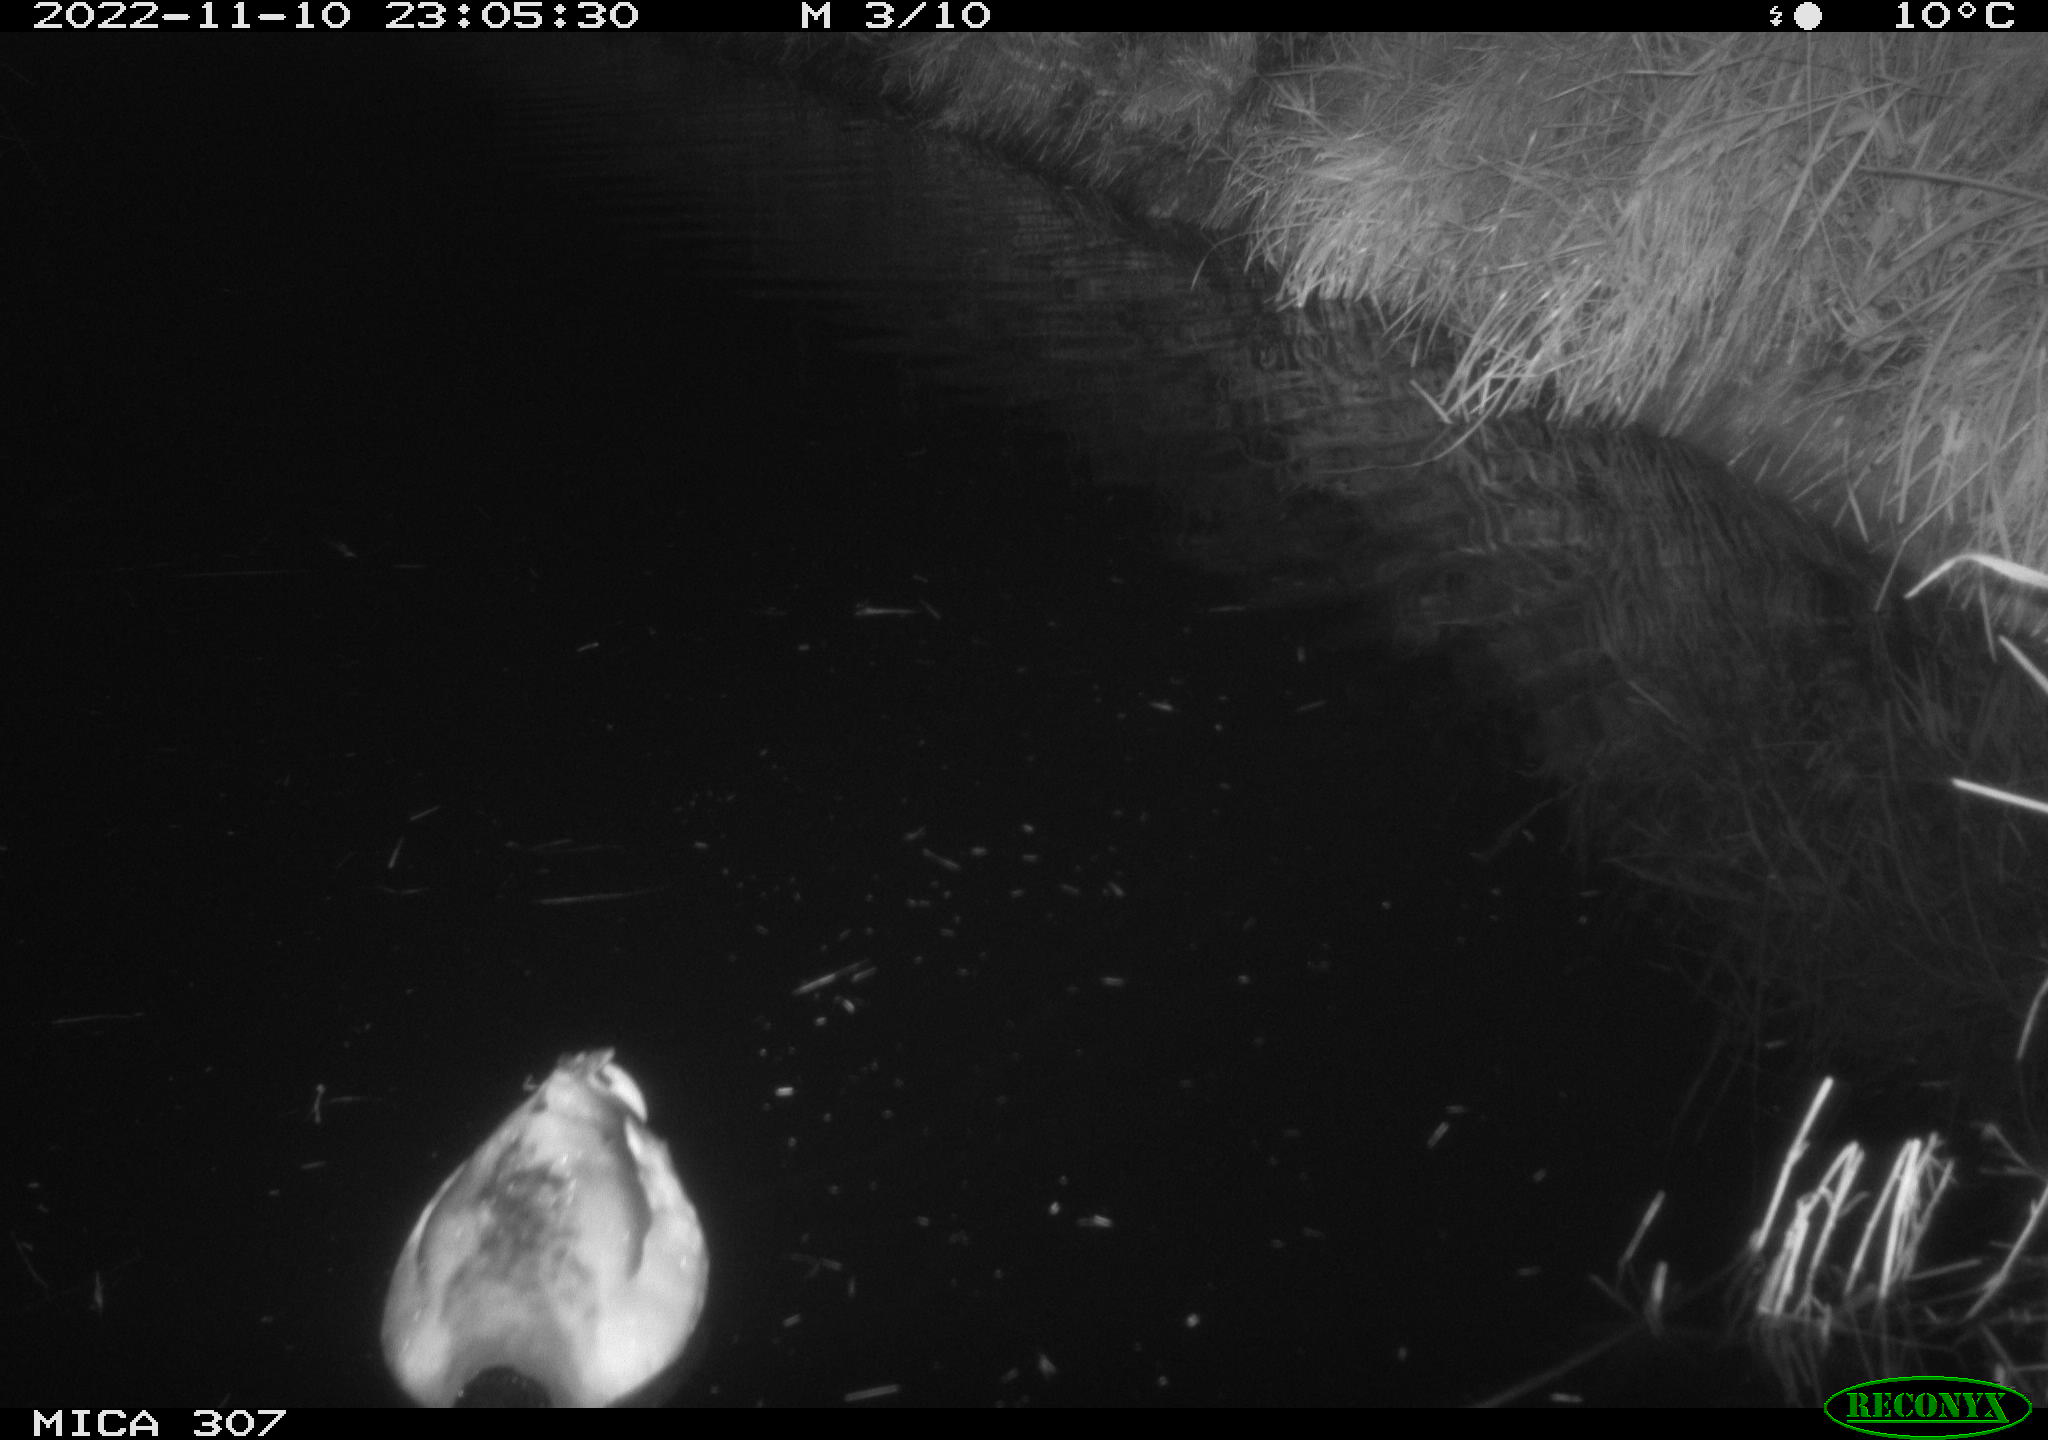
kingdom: Animalia
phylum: Chordata
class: Aves
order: Anseriformes
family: Anatidae
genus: Anas
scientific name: Anas
